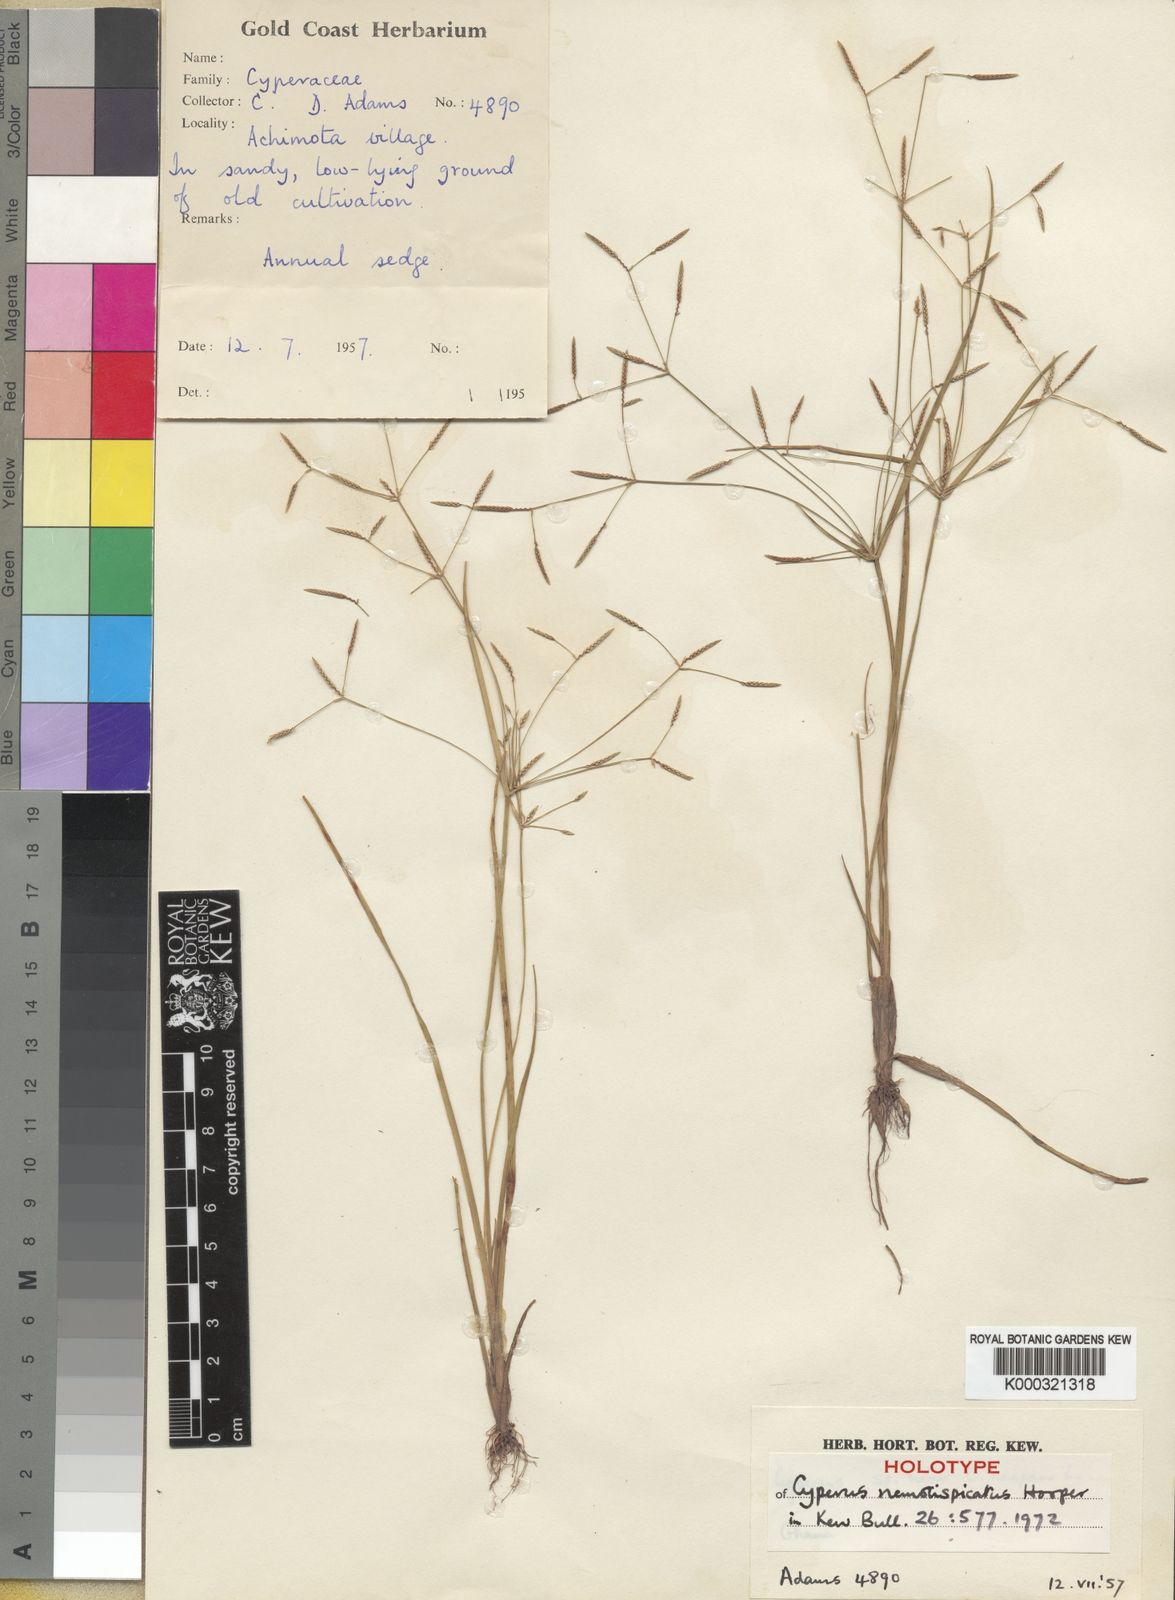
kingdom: Plantae
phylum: Tracheophyta
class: Liliopsida
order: Poales
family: Cyperaceae
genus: Cyperus
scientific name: Cyperus remotispicatus
